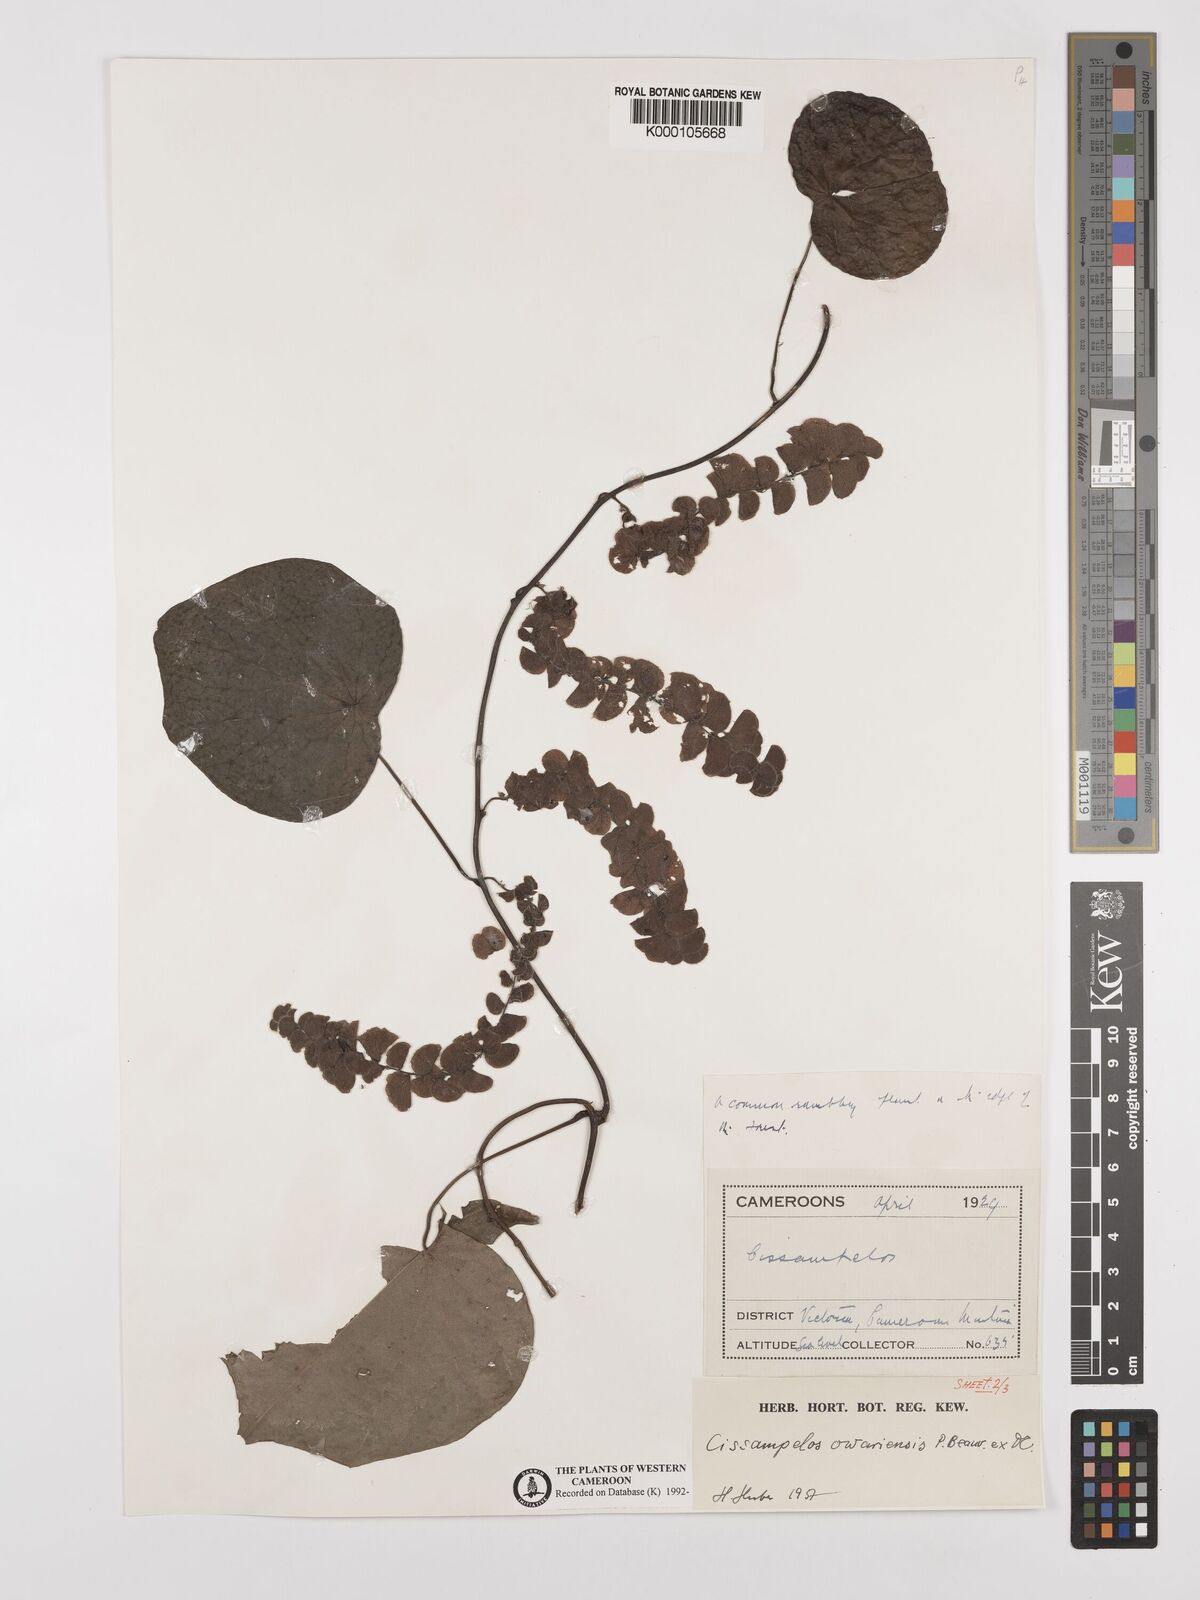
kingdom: Plantae
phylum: Tracheophyta
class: Magnoliopsida
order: Ranunculales
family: Menispermaceae
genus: Cissampelos
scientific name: Cissampelos owariensis
